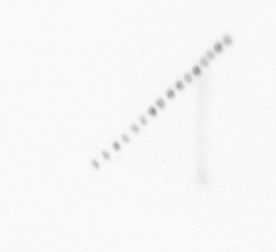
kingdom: Chromista
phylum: Ochrophyta
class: Bacillariophyceae
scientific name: Bacillariophyceae
